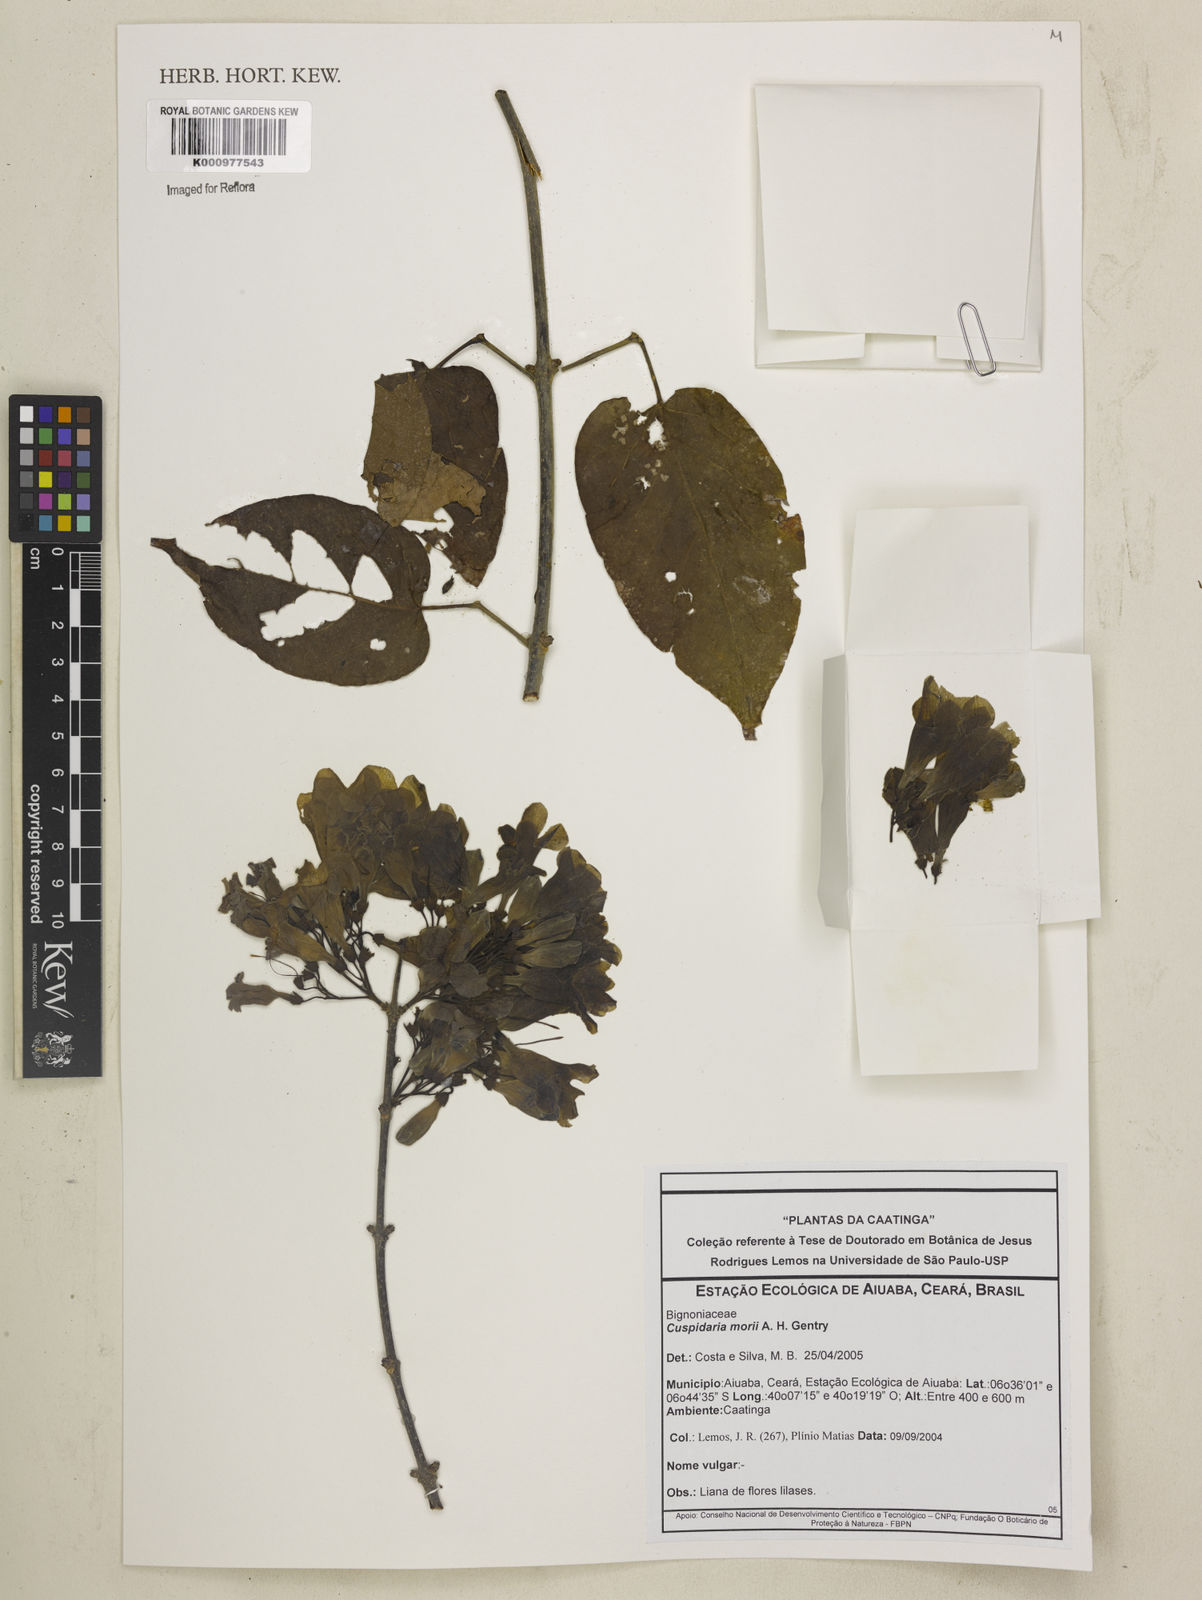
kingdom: Plantae
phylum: Tracheophyta
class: Magnoliopsida
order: Lamiales
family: Bignoniaceae
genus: Cuspidaria
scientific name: Cuspidaria
